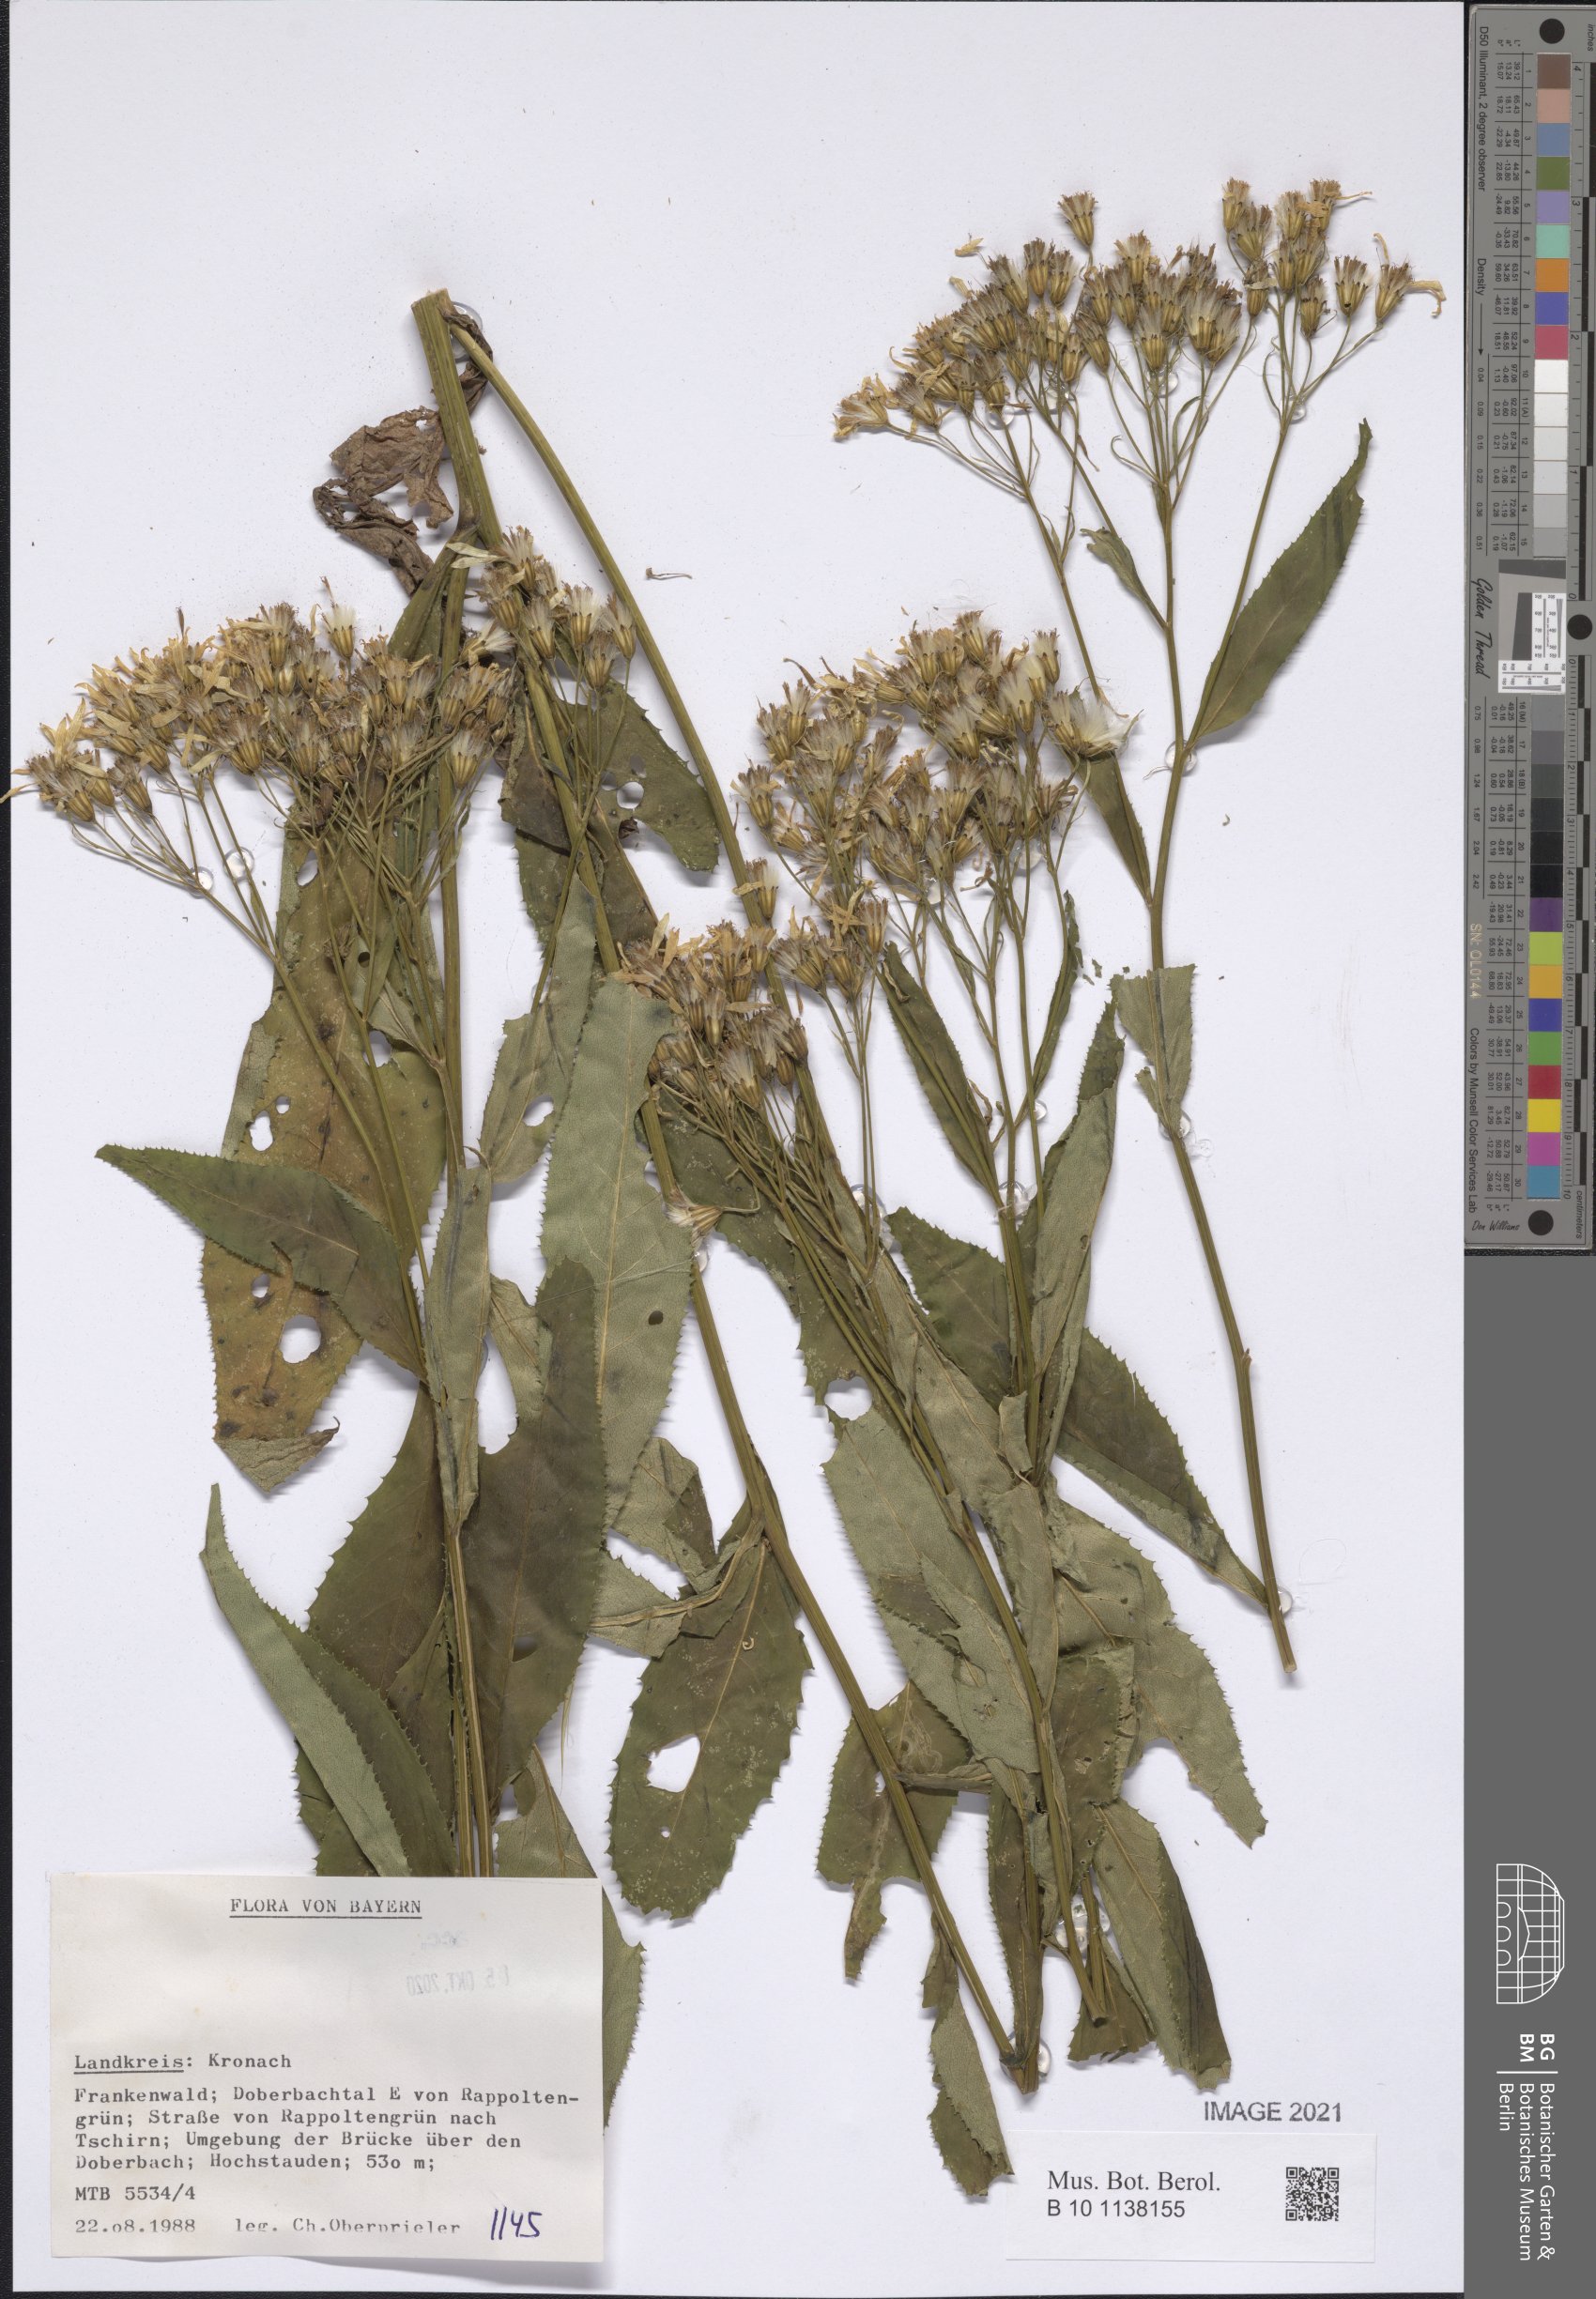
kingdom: Plantae
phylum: Tracheophyta
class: Magnoliopsida
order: Asterales
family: Asteraceae
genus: Senecio
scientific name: Senecio
